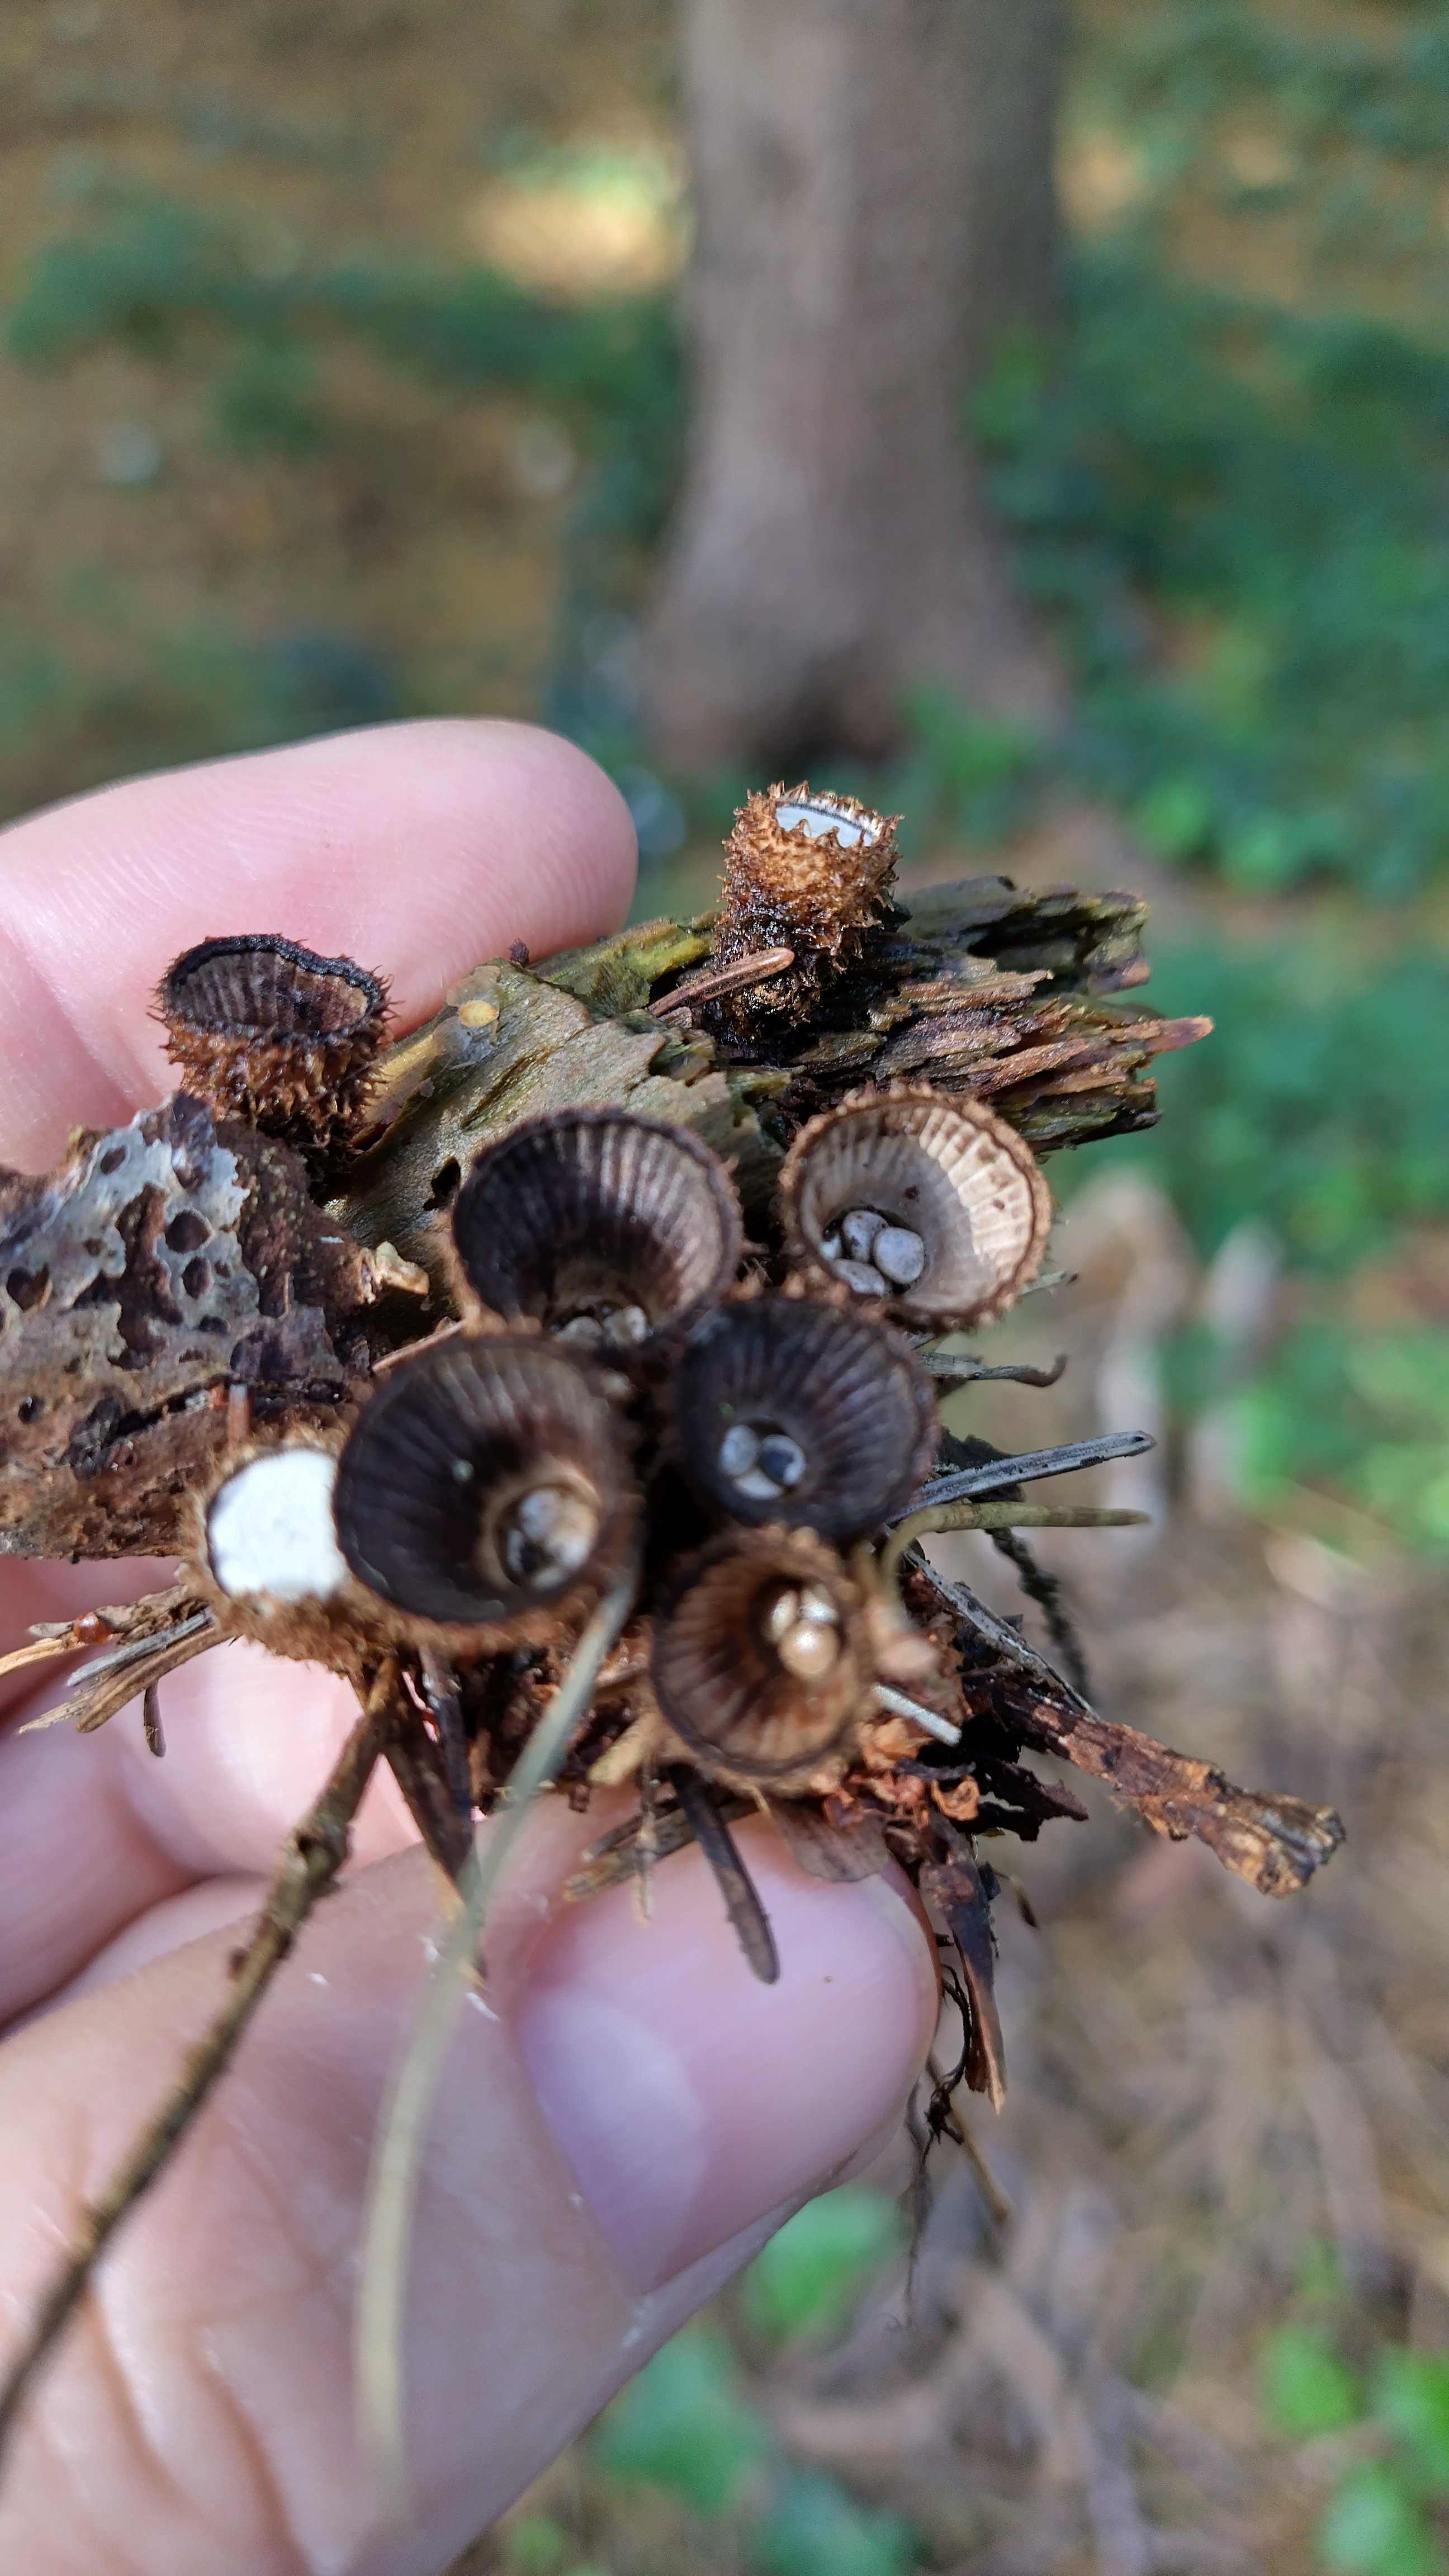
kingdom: Fungi
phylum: Basidiomycota
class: Agaricomycetes
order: Agaricales
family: Agaricaceae
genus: Cyathus
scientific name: Cyathus striatus
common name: stribet redesvamp
